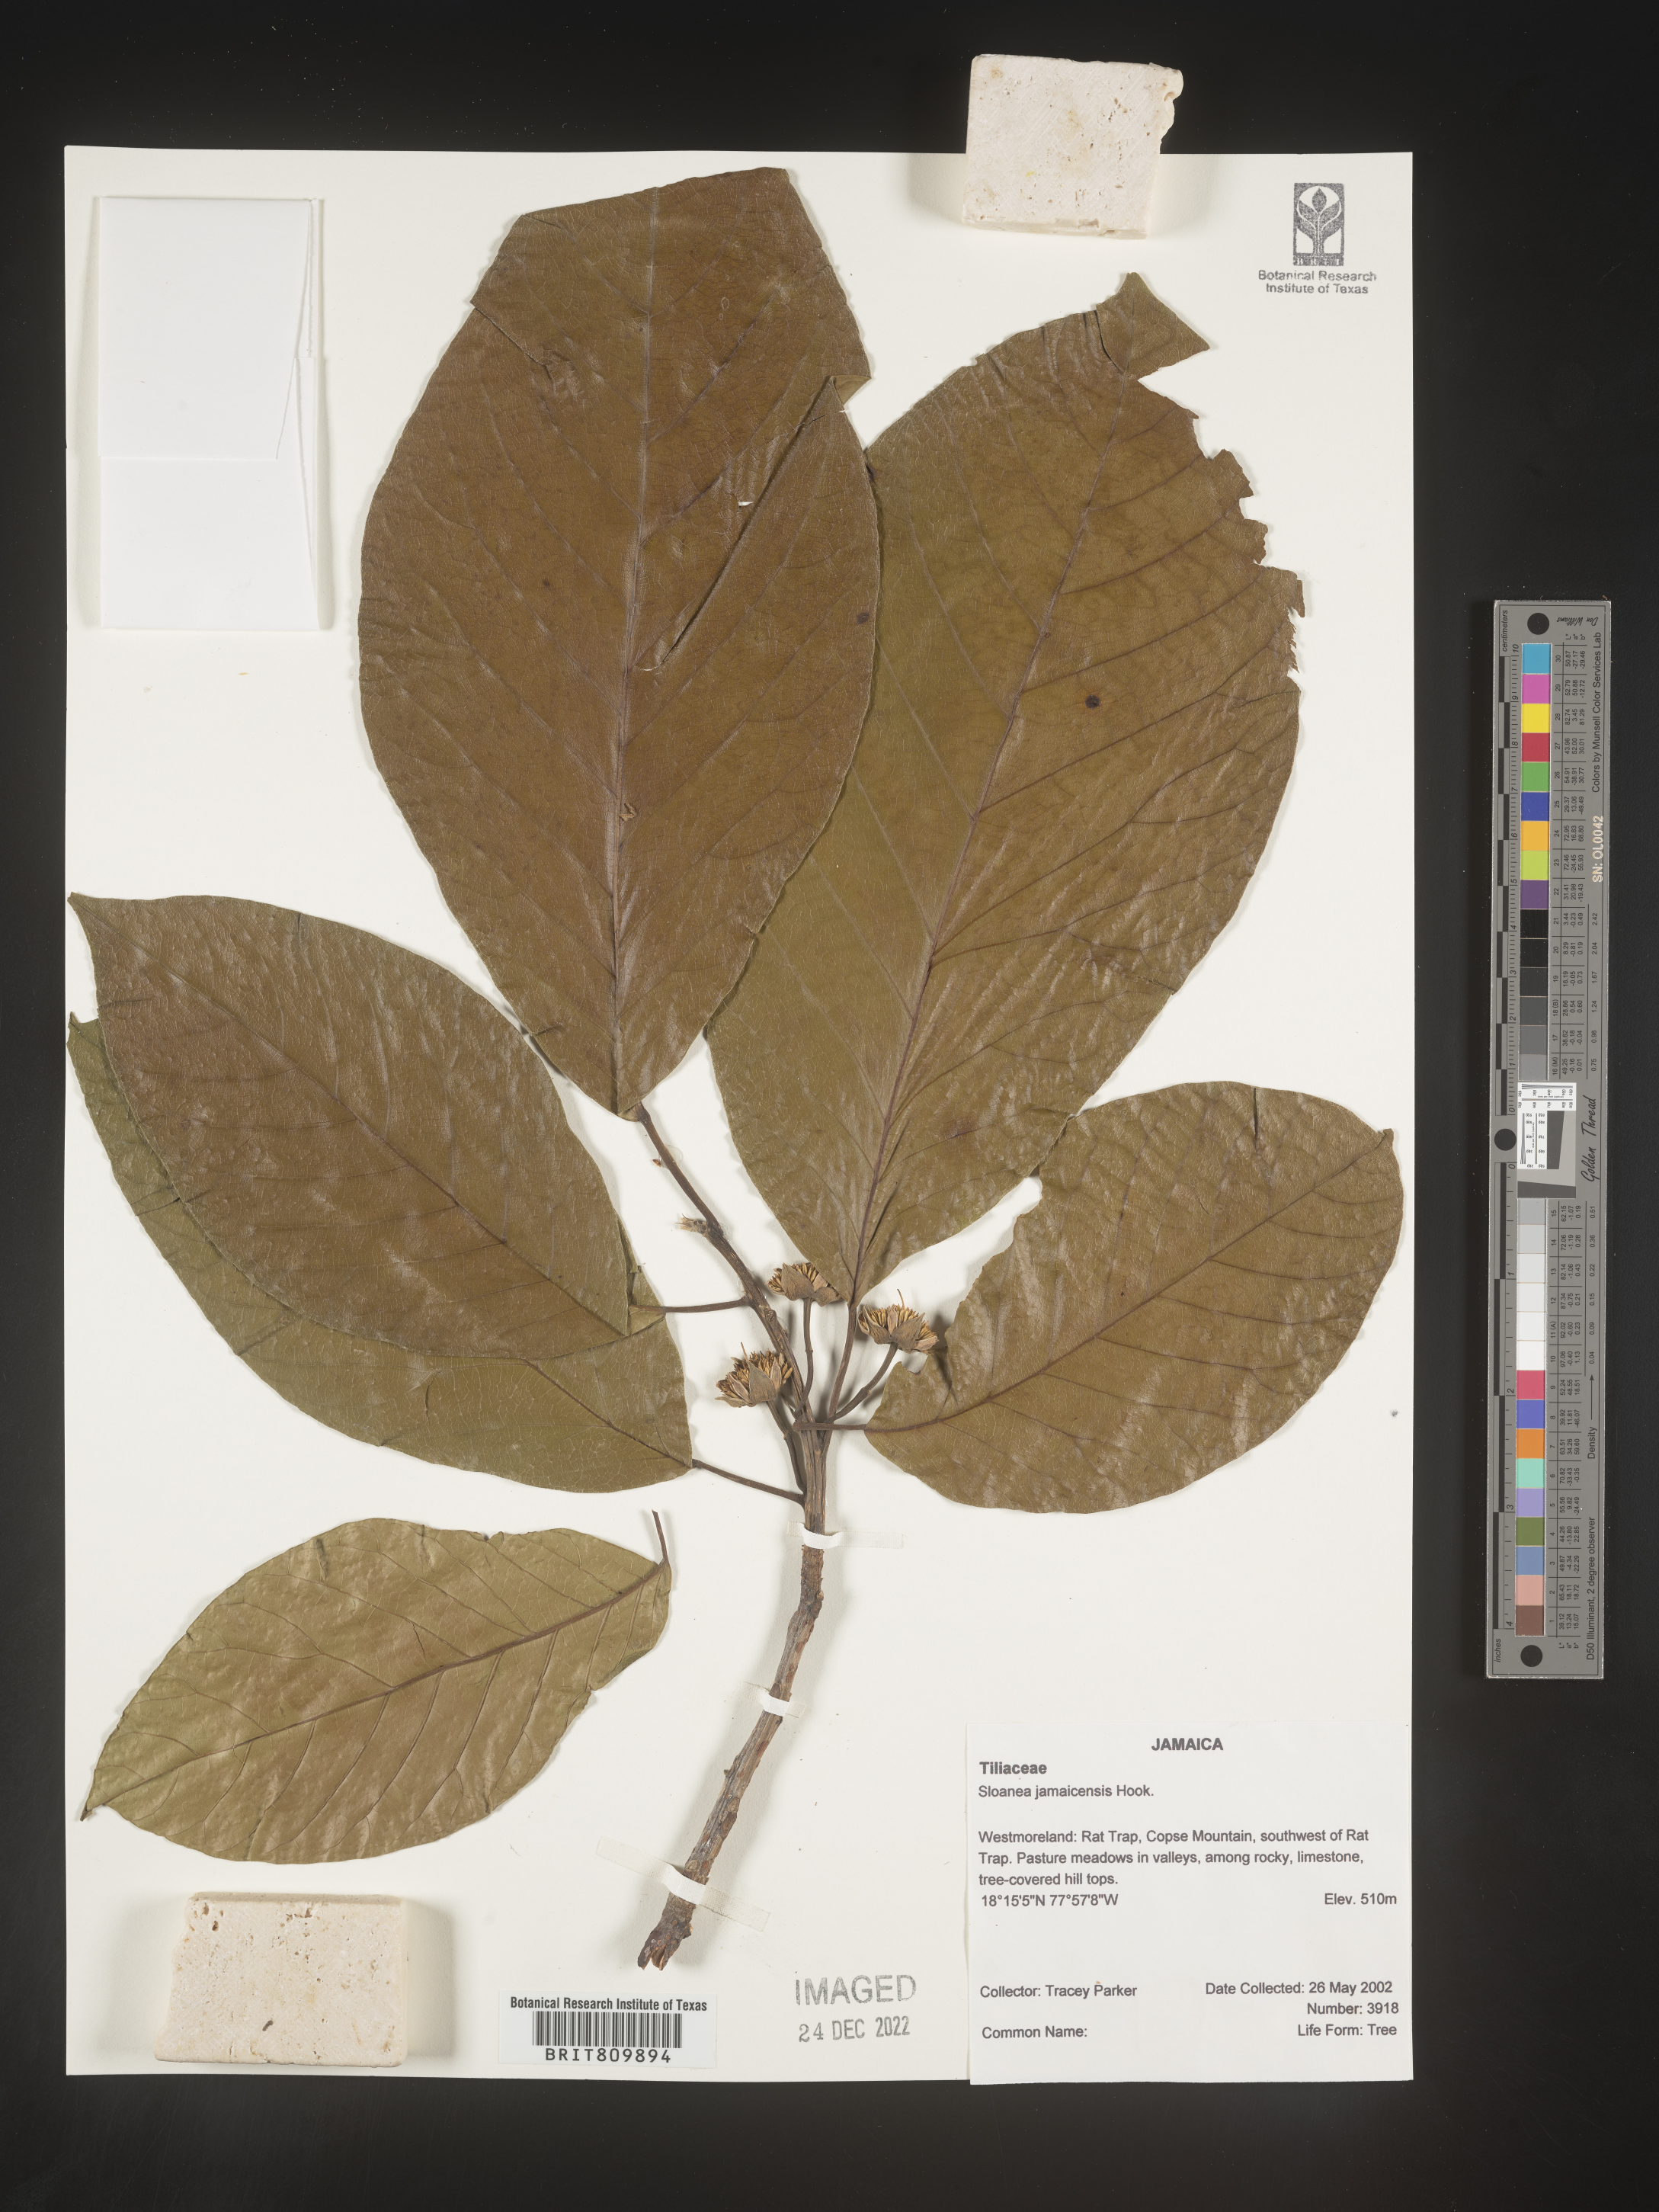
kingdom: Plantae
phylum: Tracheophyta
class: Magnoliopsida
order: Oxalidales
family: Elaeocarpaceae
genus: Sloanea
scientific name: Sloanea
